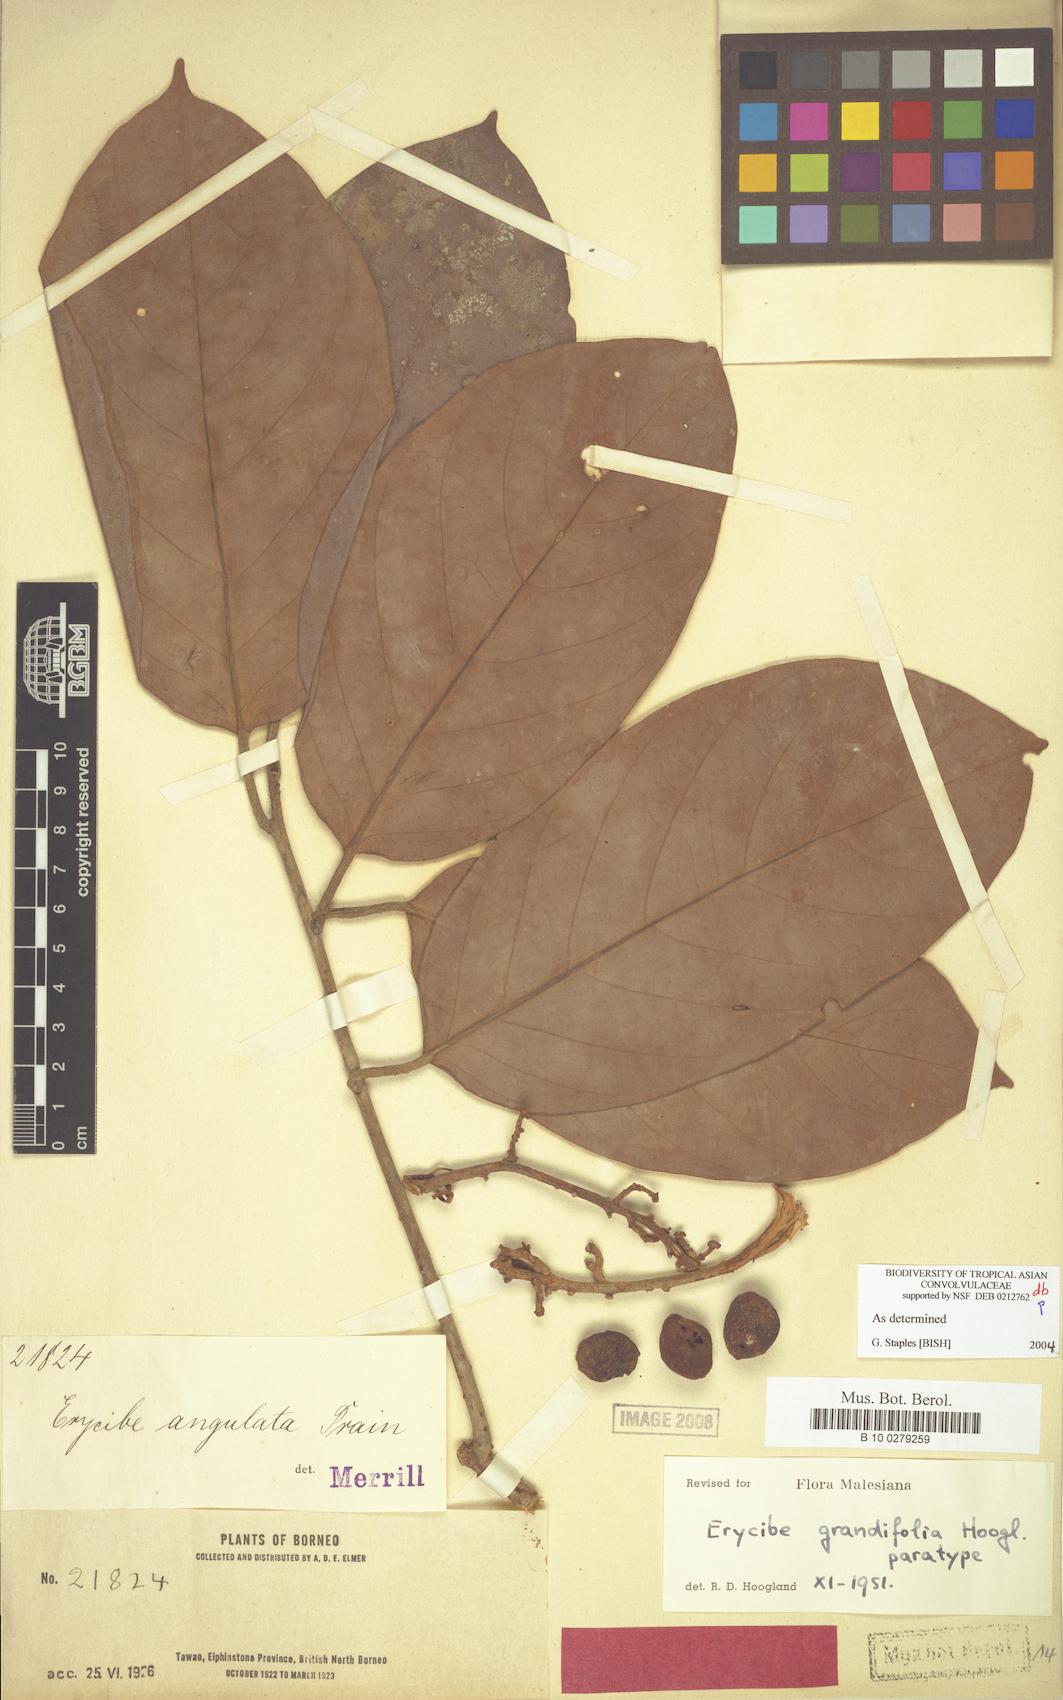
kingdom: Plantae
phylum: Tracheophyta
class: Magnoliopsida
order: Solanales
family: Convolvulaceae
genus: Erycibe
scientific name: Erycibe grandifolia
